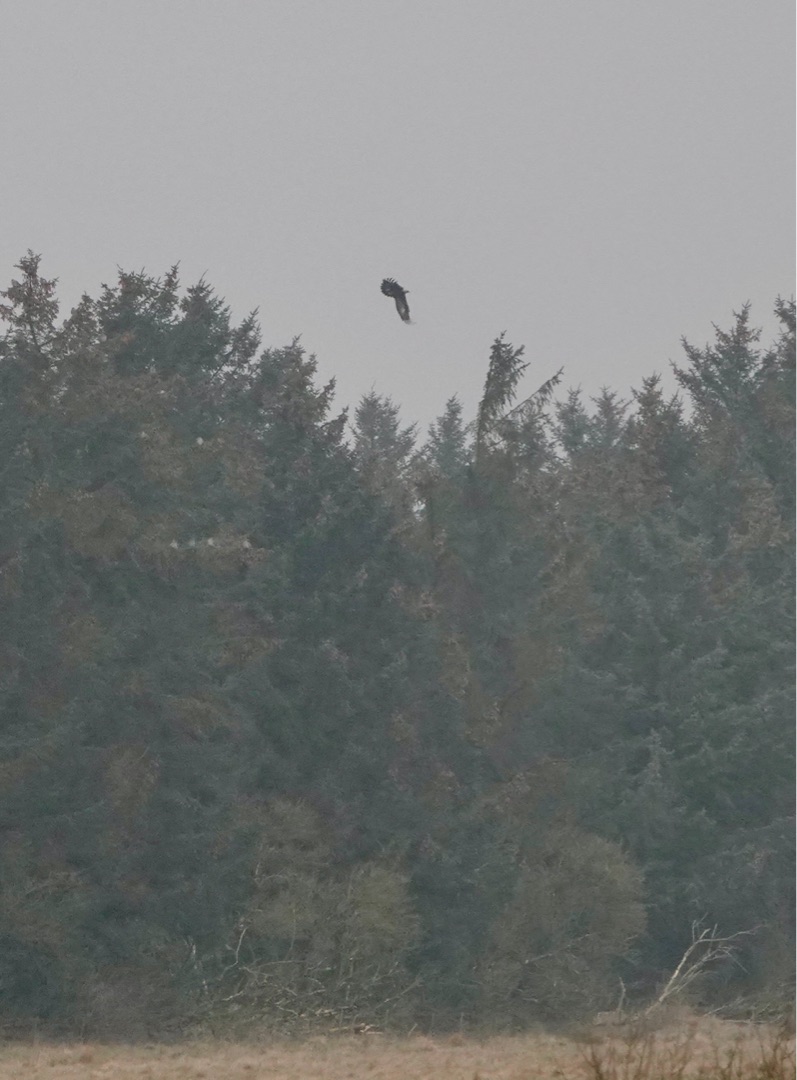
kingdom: Animalia
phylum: Chordata
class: Aves
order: Accipitriformes
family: Accipitridae
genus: Aquila
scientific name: Aquila chrysaetos
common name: Kongeørn
